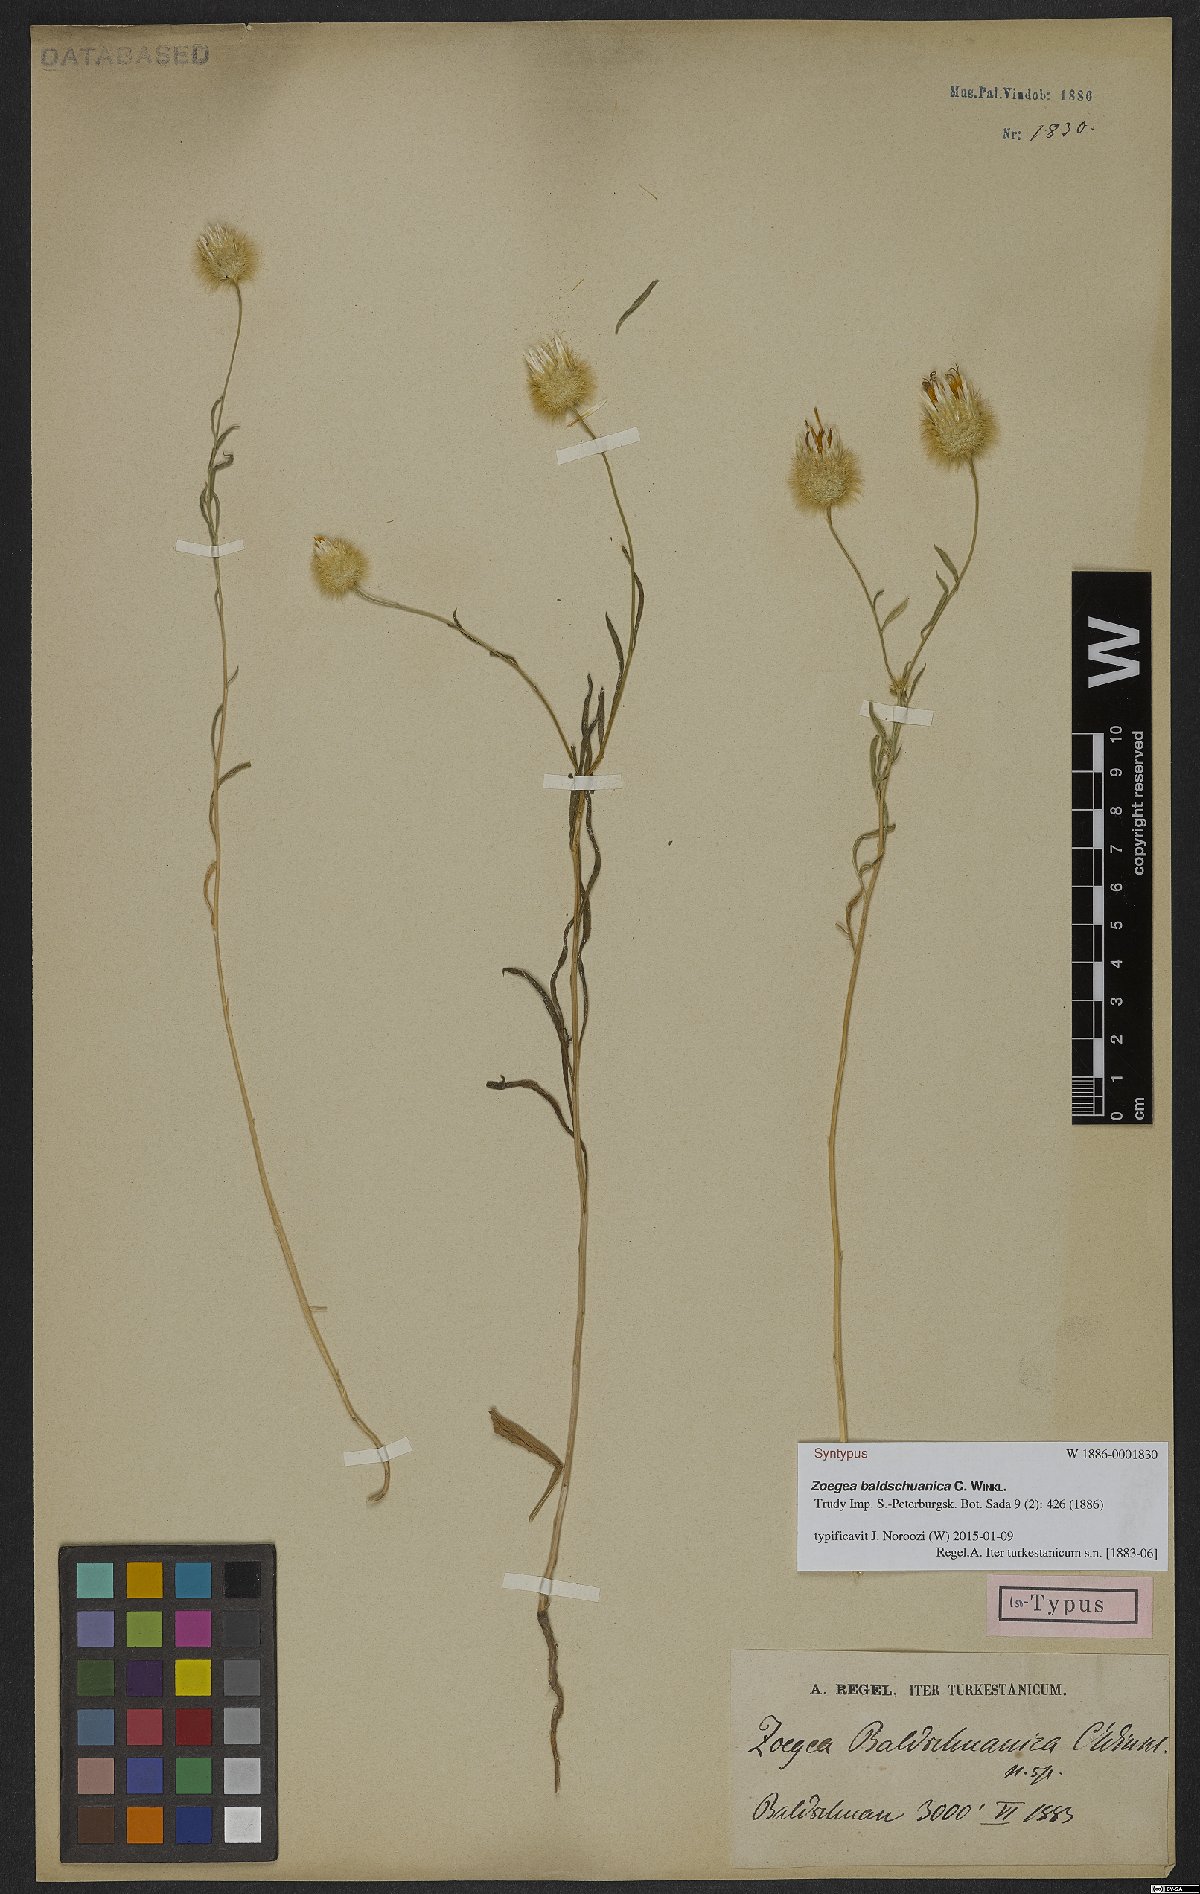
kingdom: Plantae
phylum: Tracheophyta
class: Magnoliopsida
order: Asterales
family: Asteraceae
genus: Zoegea
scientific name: Zoegea crinita
